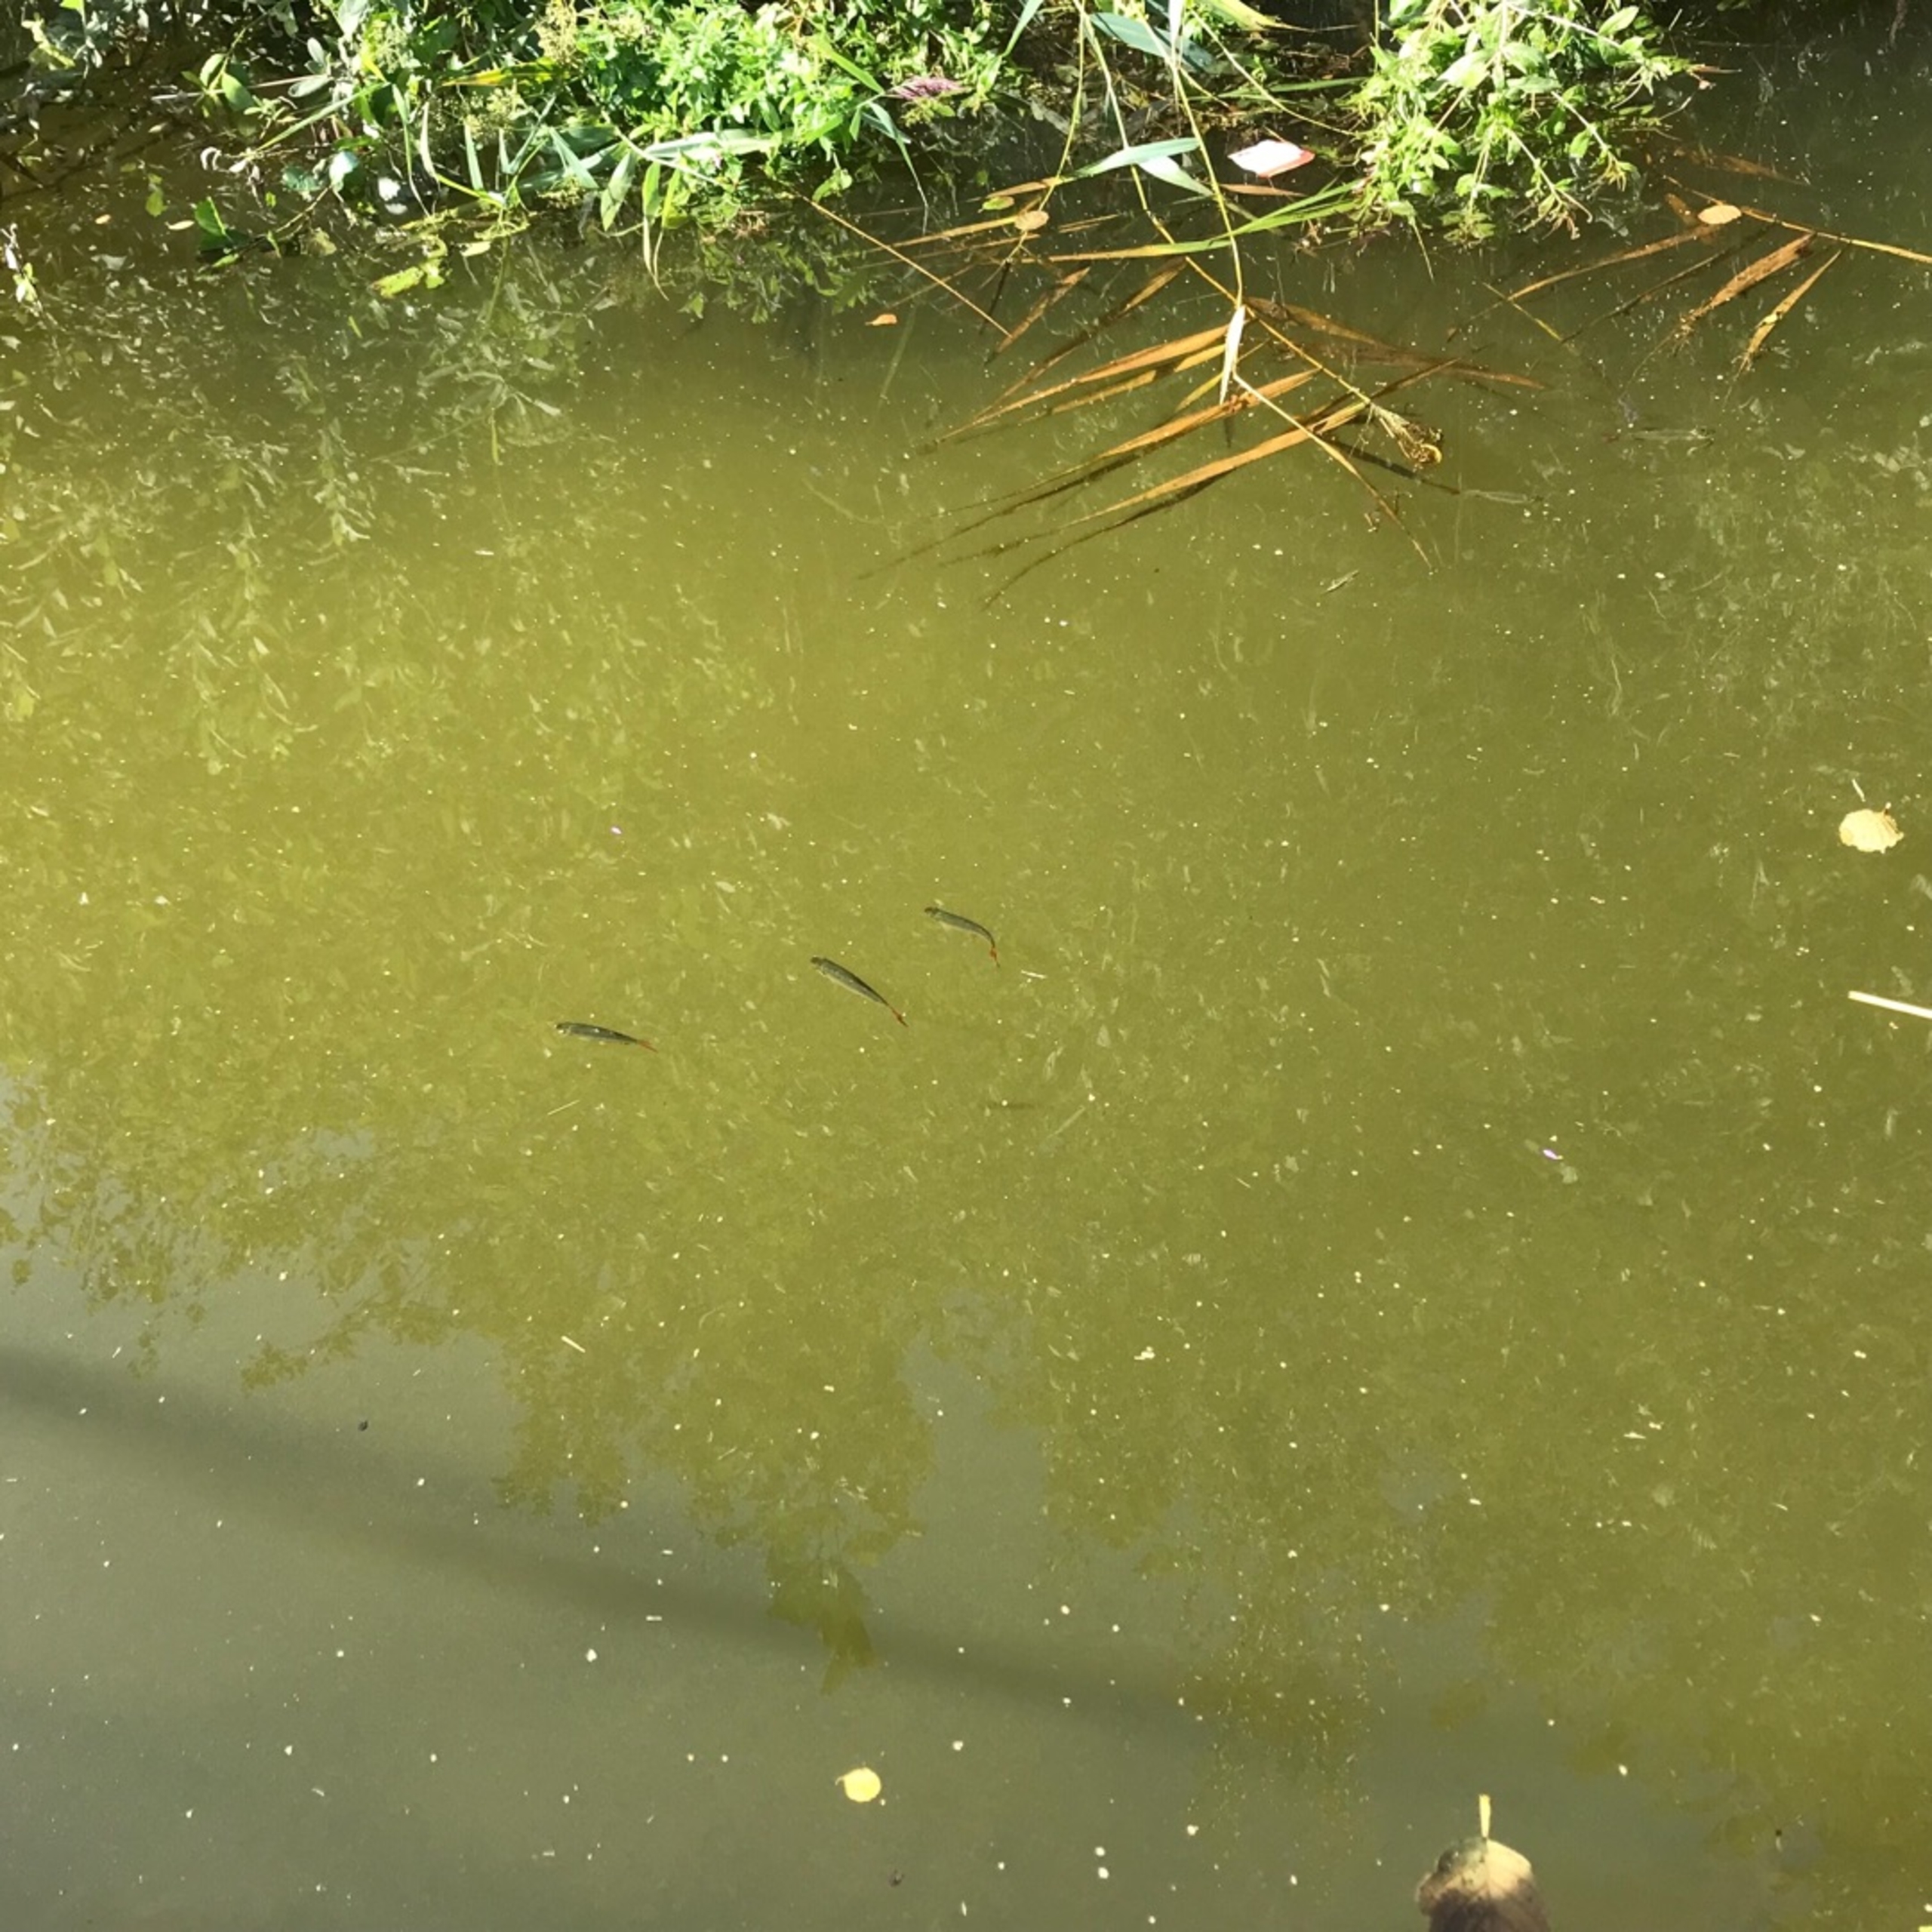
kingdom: Animalia
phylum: Chordata
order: Cypriniformes
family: Cyprinidae
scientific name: Cyprinidae
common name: Karpefamilien
